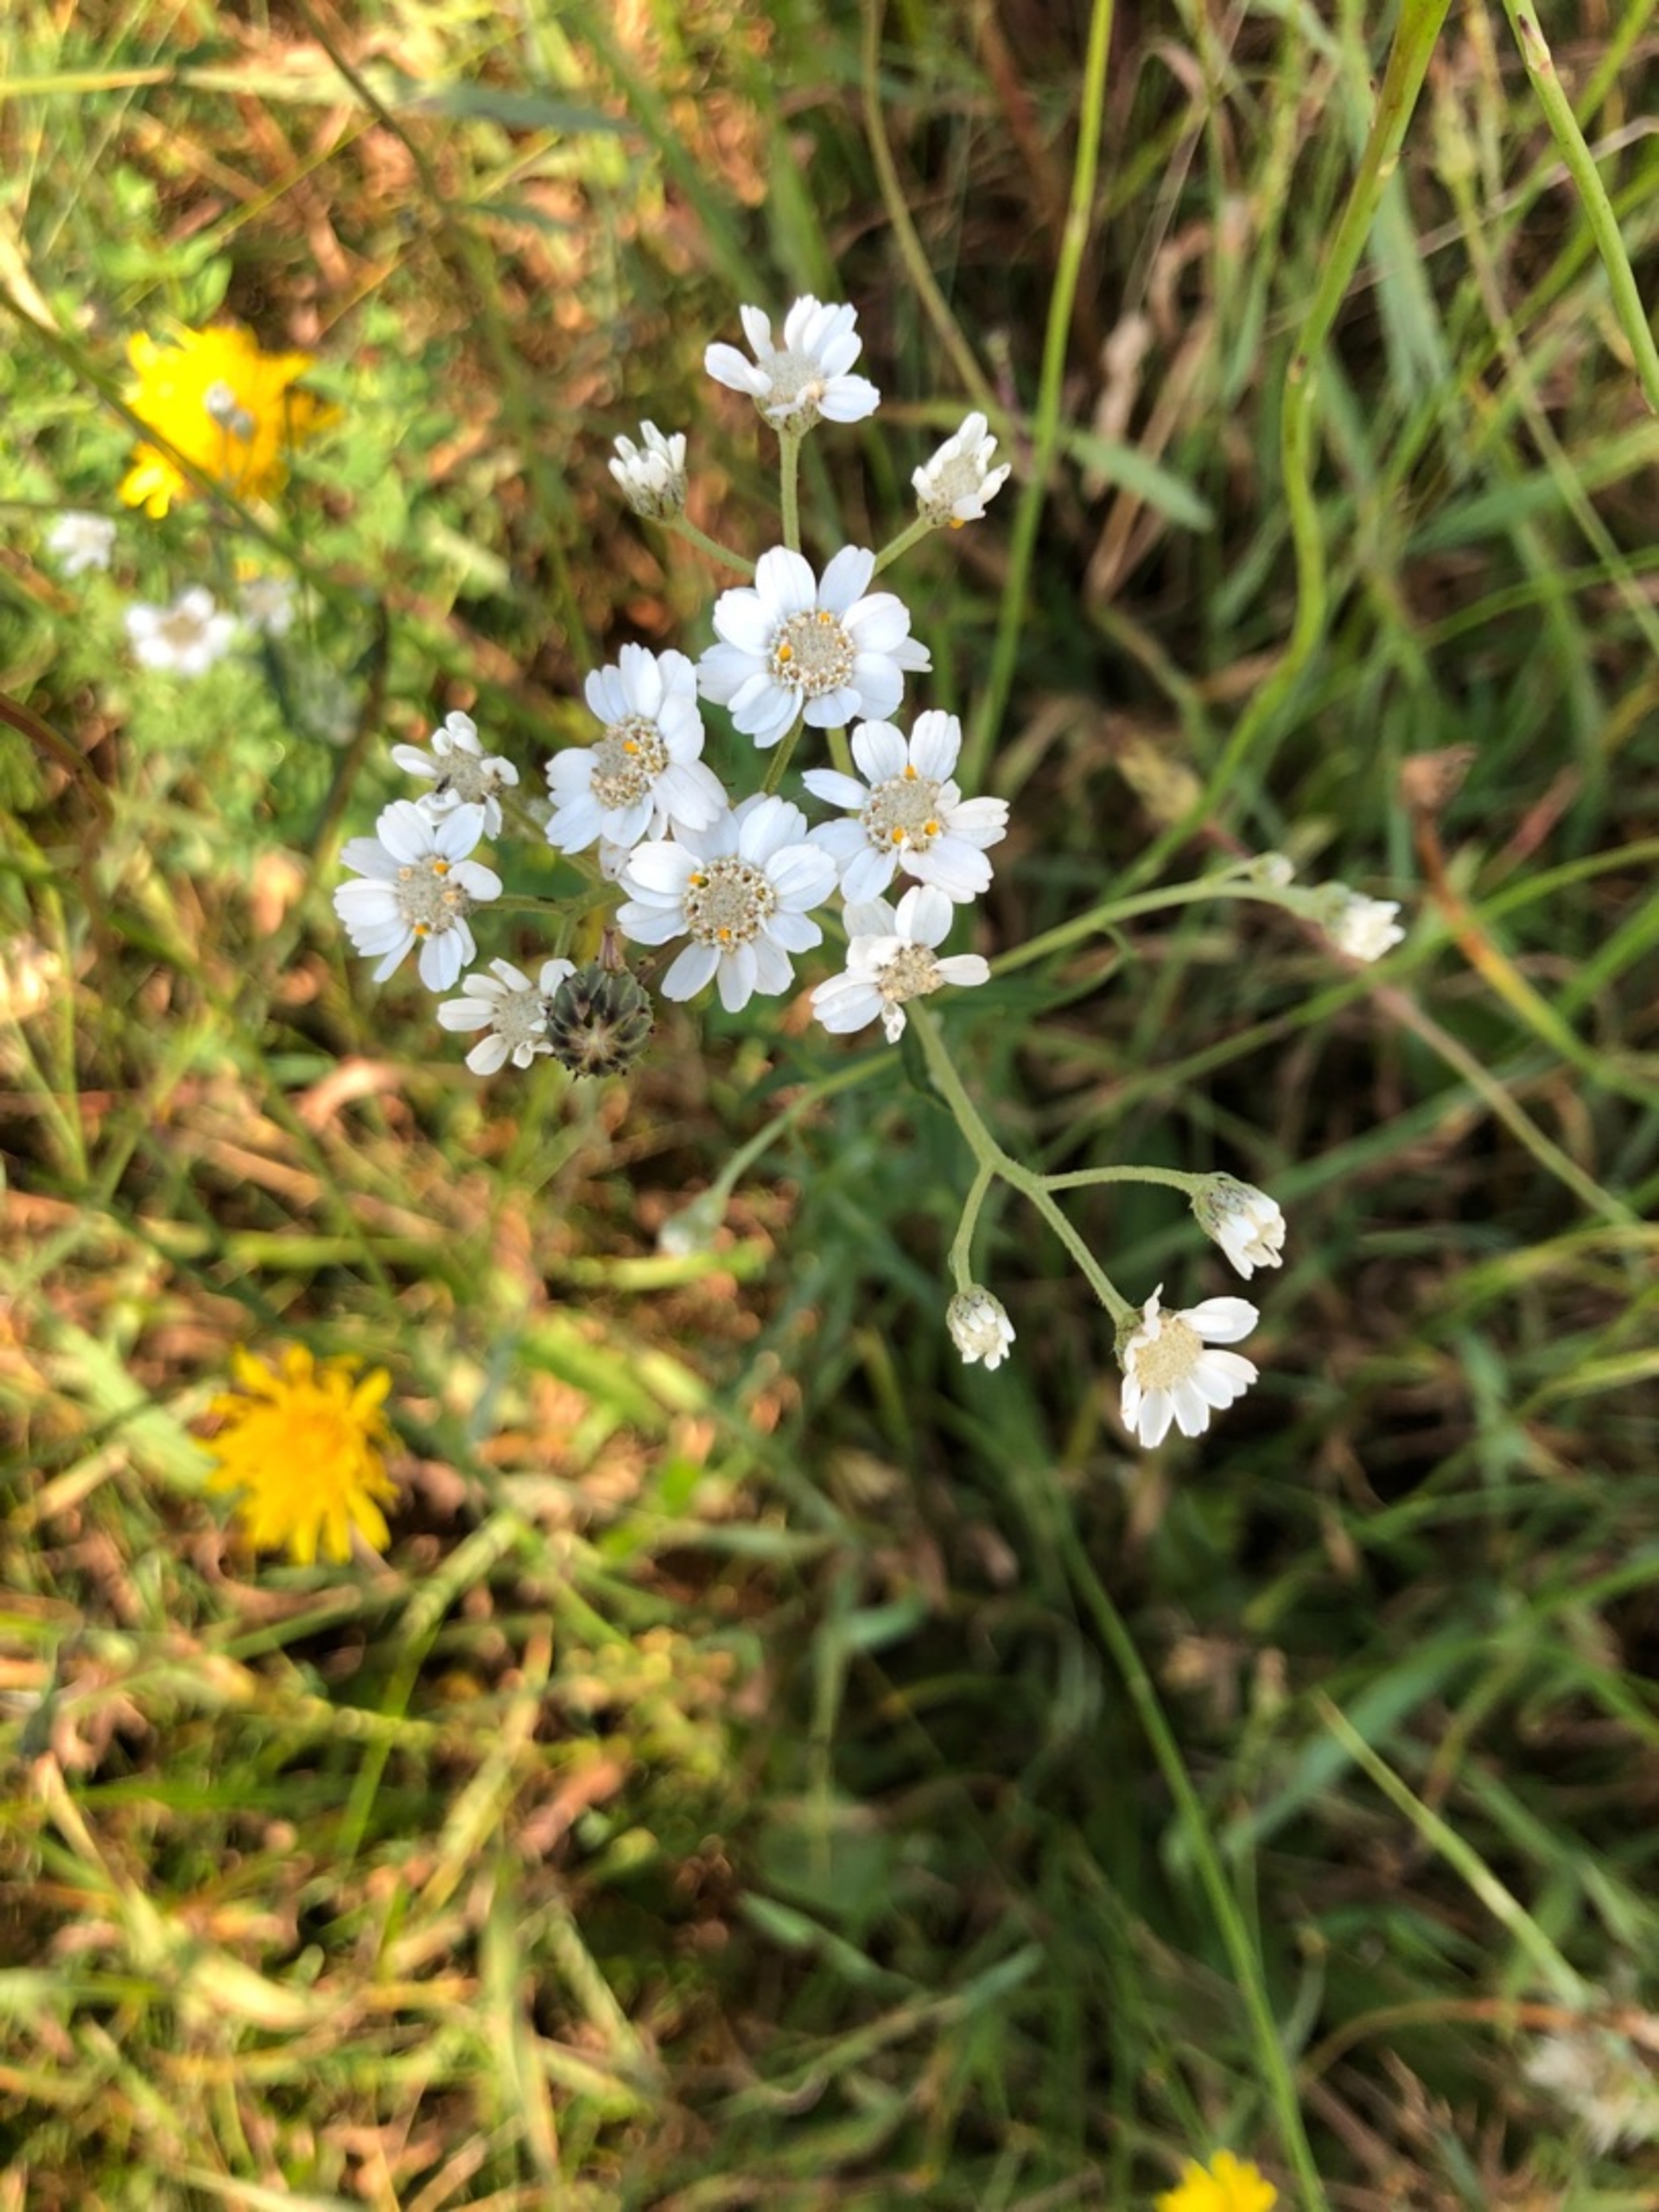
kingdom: Plantae
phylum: Tracheophyta
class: Magnoliopsida
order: Asterales
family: Asteraceae
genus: Achillea
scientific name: Achillea ptarmica
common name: Nyse-røllike
